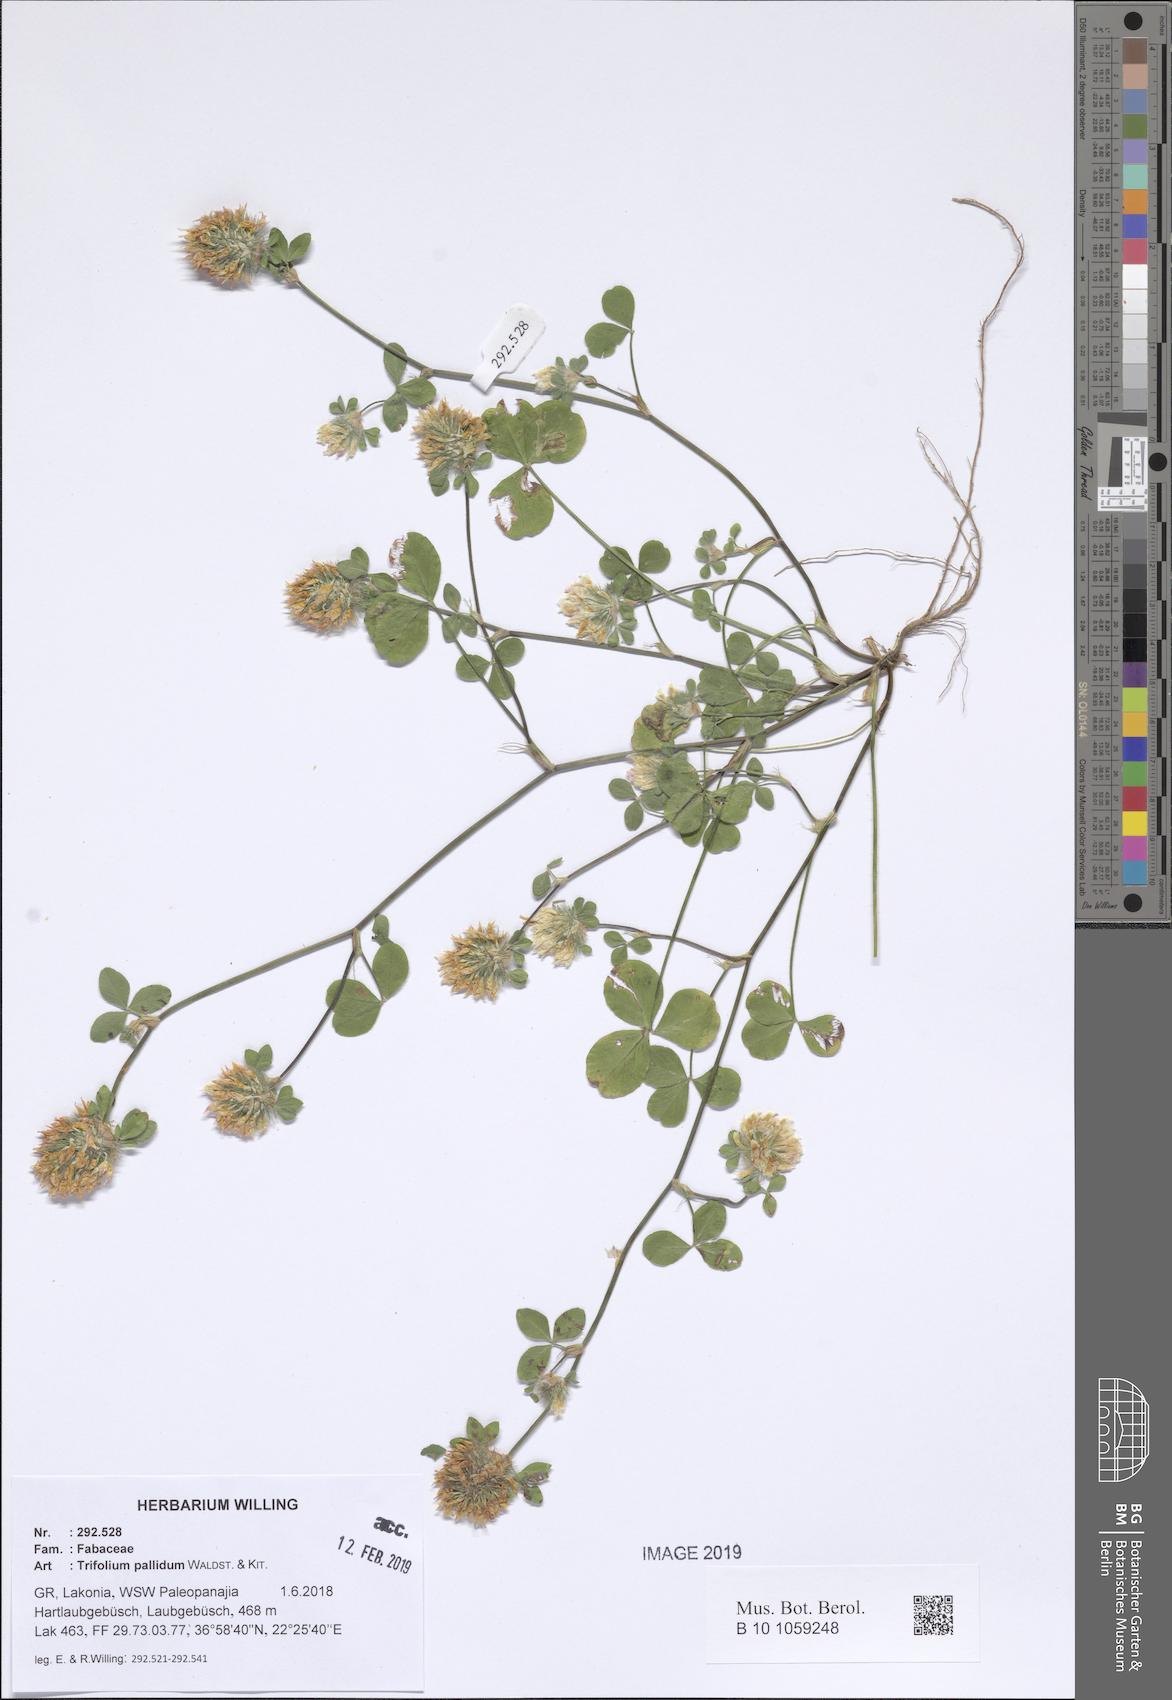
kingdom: Plantae
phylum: Tracheophyta
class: Magnoliopsida
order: Fabales
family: Fabaceae
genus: Trifolium
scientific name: Trifolium pallidum
